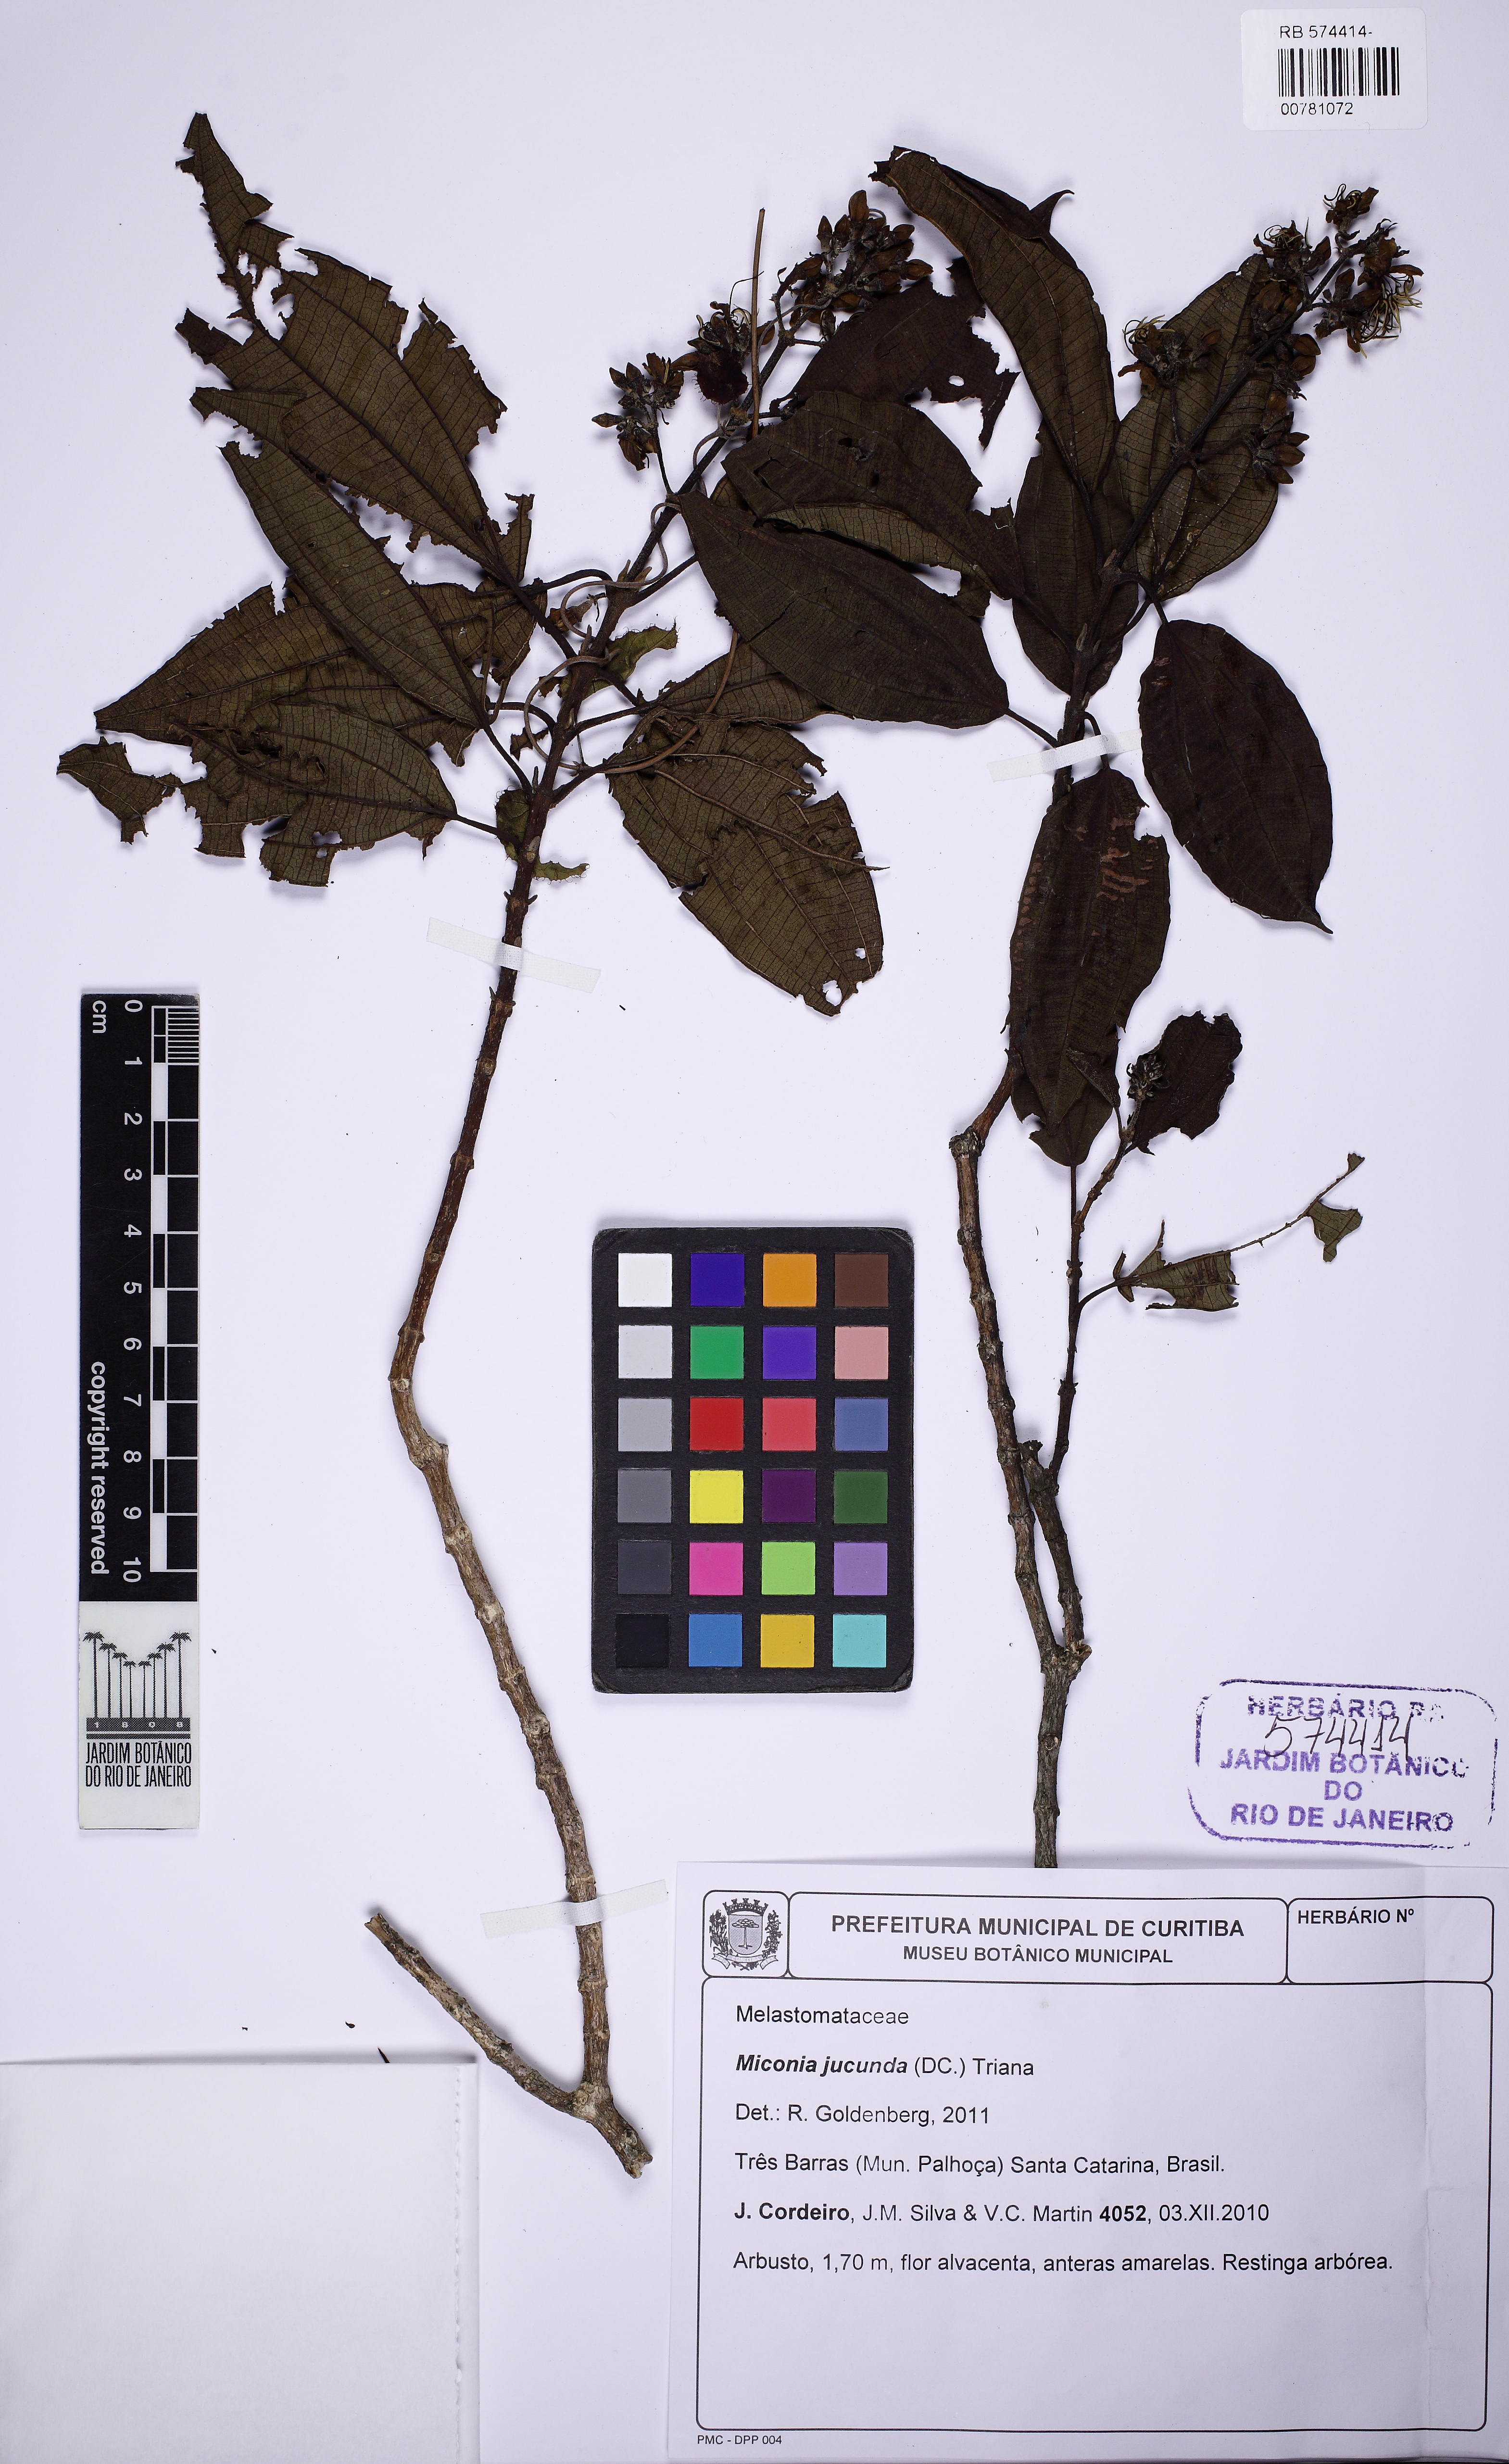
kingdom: Plantae
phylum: Tracheophyta
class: Magnoliopsida
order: Myrtales
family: Melastomataceae
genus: Miconia
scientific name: Miconia jucunda
